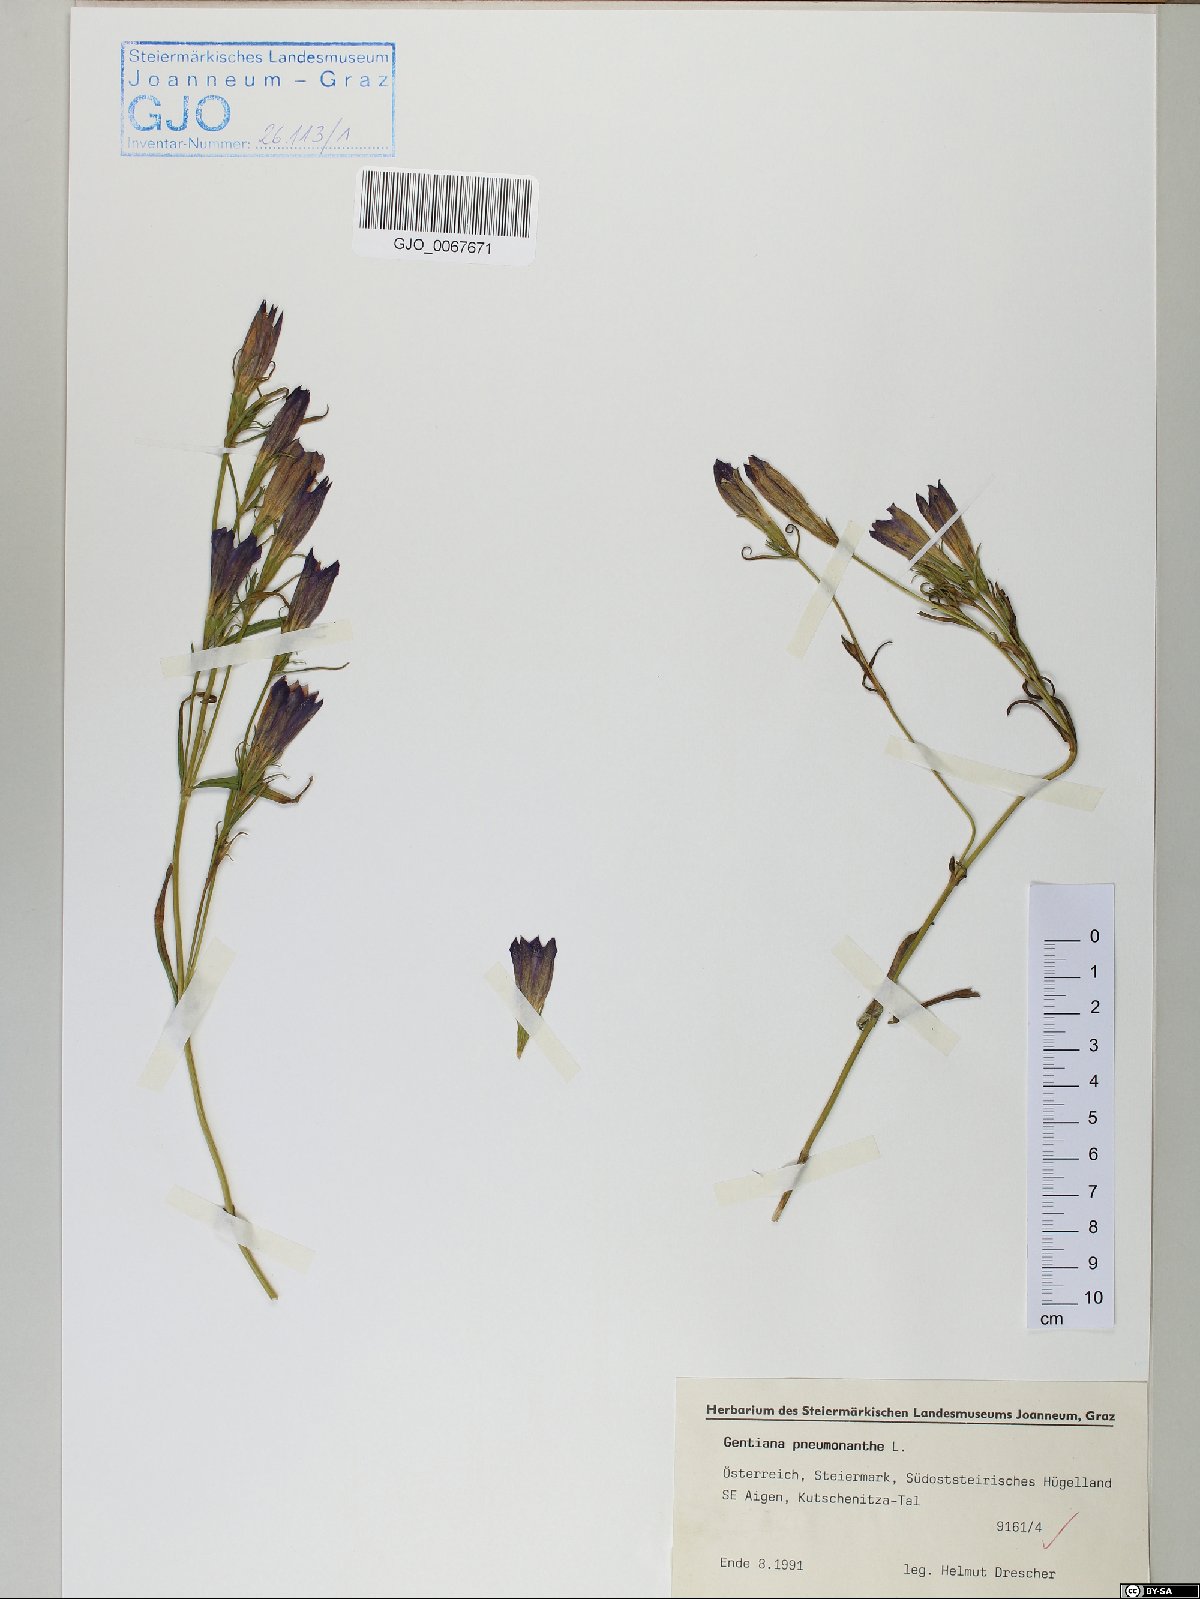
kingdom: Plantae
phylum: Tracheophyta
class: Magnoliopsida
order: Gentianales
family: Gentianaceae
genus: Gentiana
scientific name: Gentiana pneumonanthe
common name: Marsh gentian
